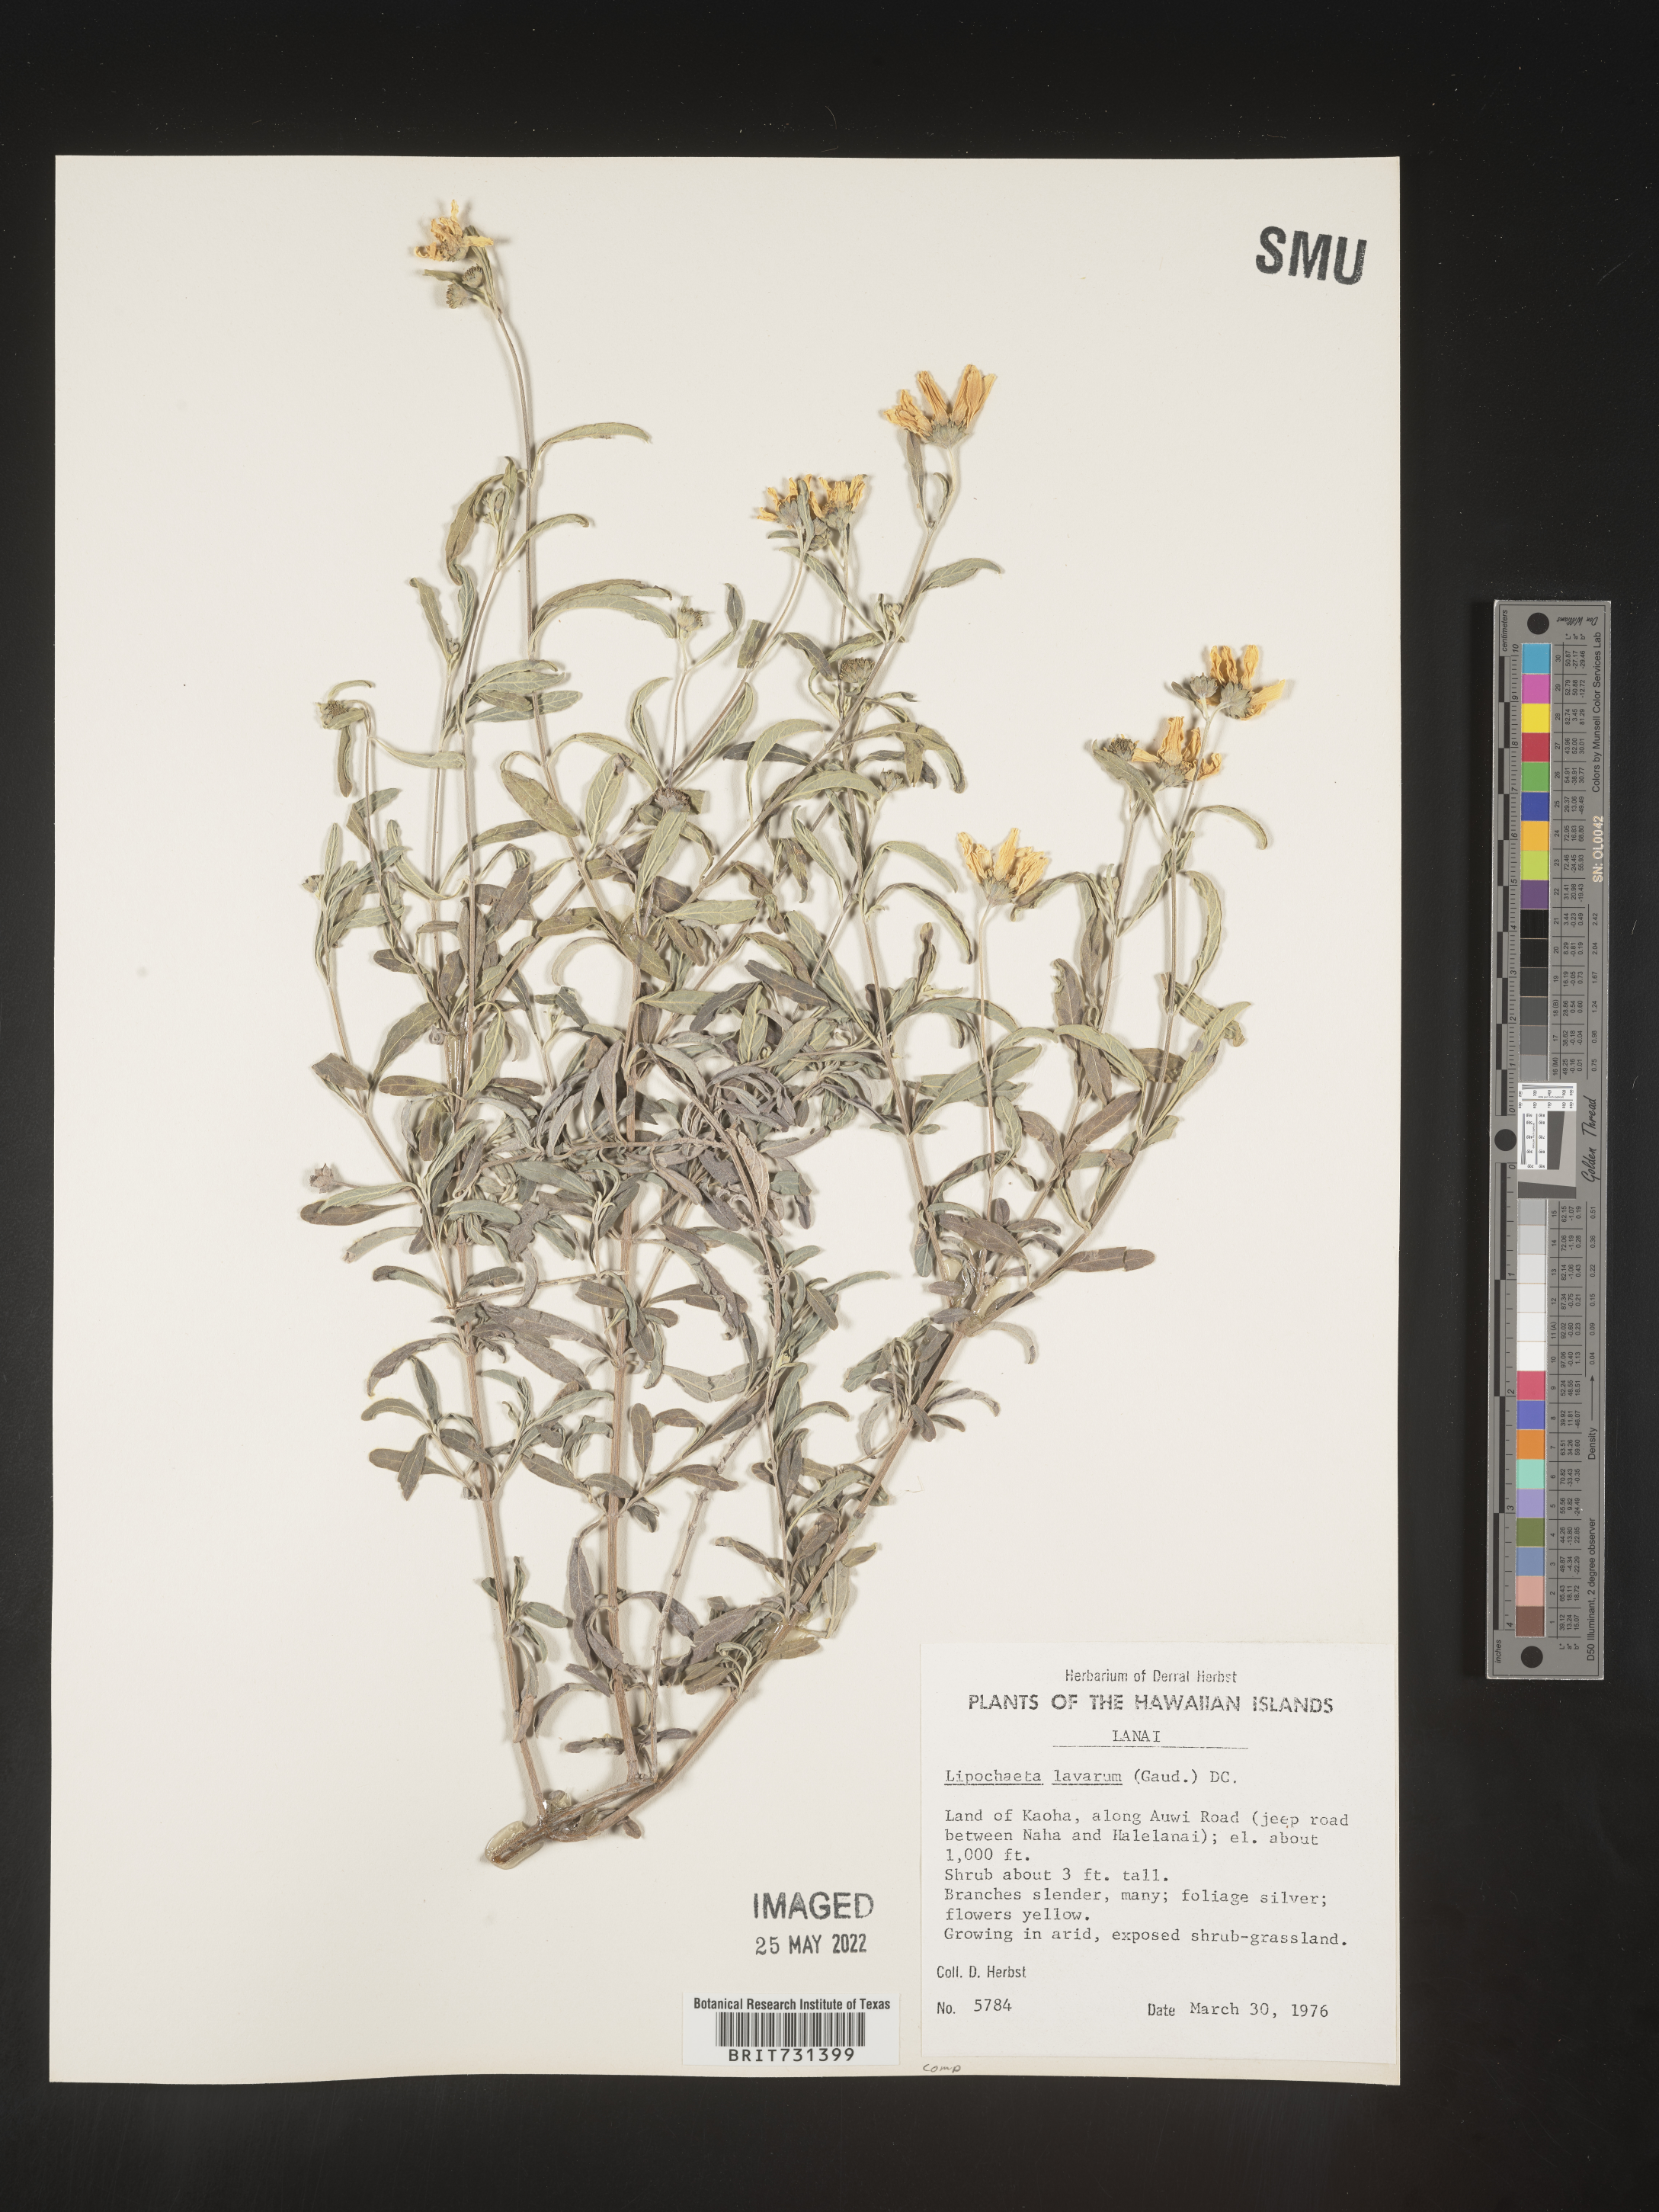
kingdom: Plantae
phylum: Tracheophyta
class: Magnoliopsida
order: Asterales
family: Asteraceae
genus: Lipochaeta
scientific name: Lipochaeta
